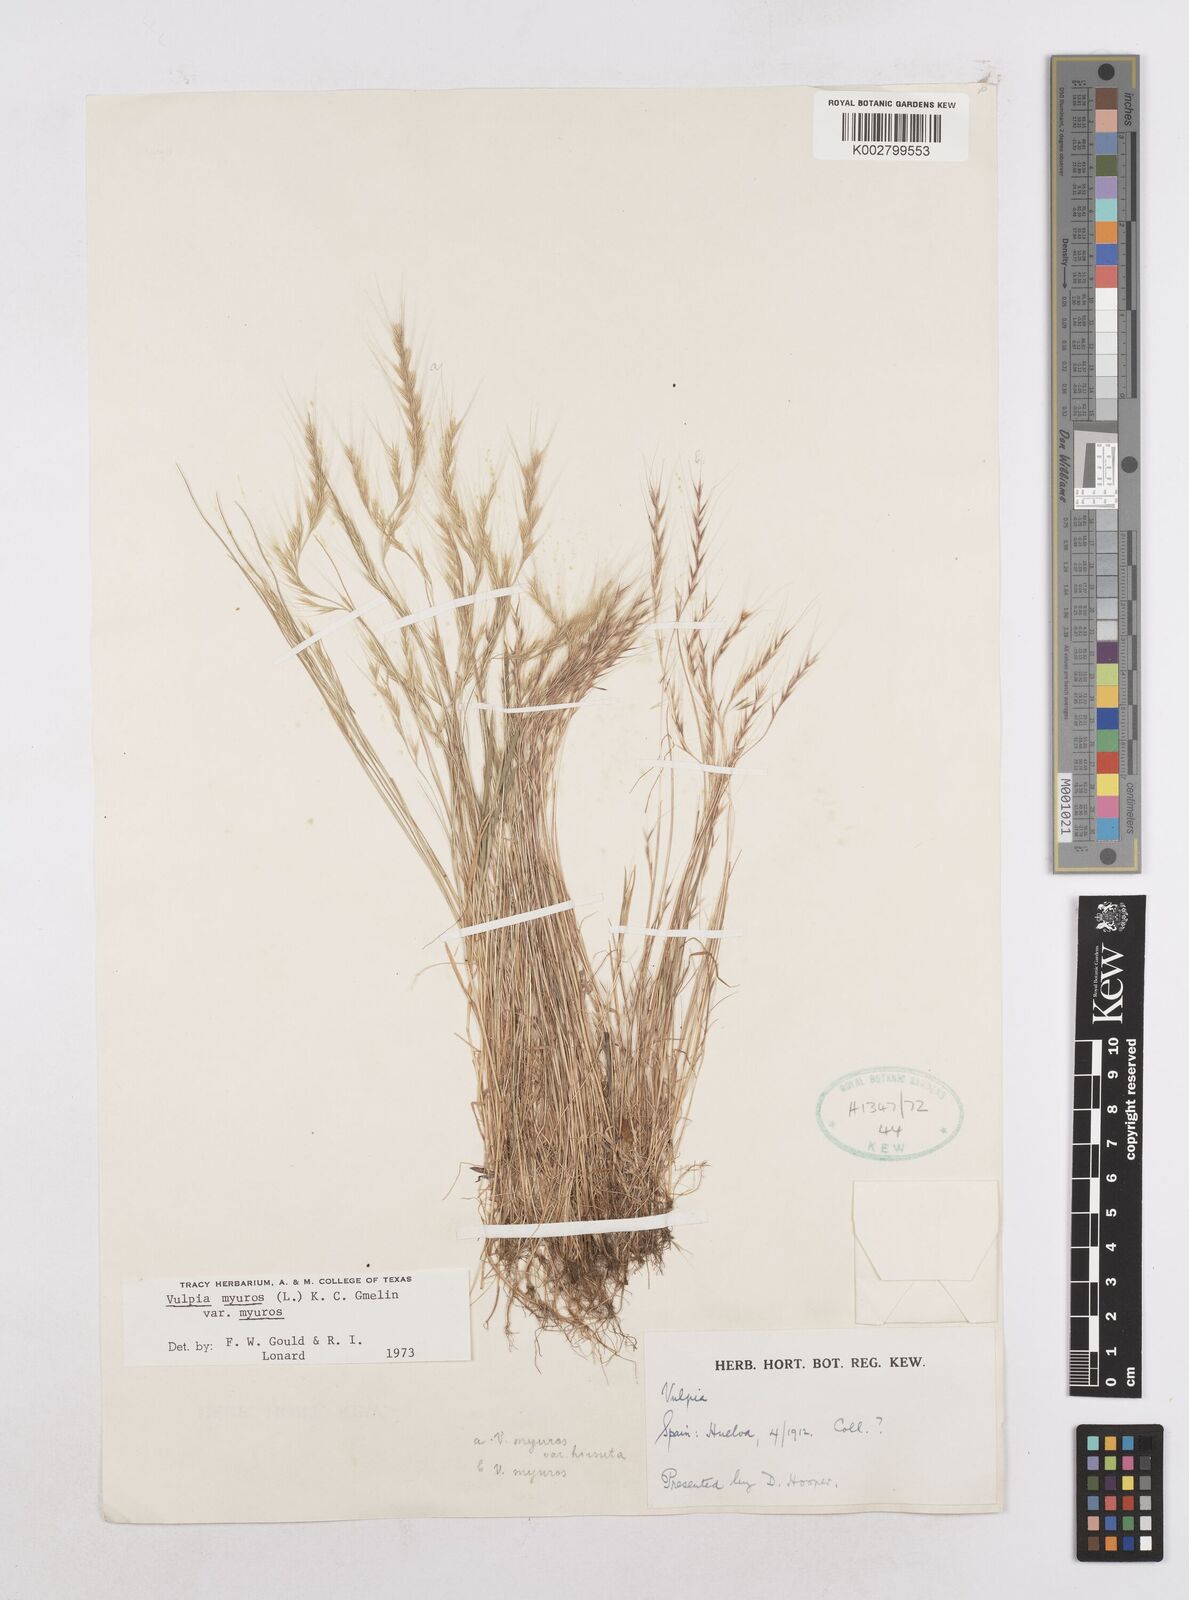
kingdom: Plantae
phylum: Tracheophyta
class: Liliopsida
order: Poales
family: Poaceae
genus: Festuca
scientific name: Festuca myuros
